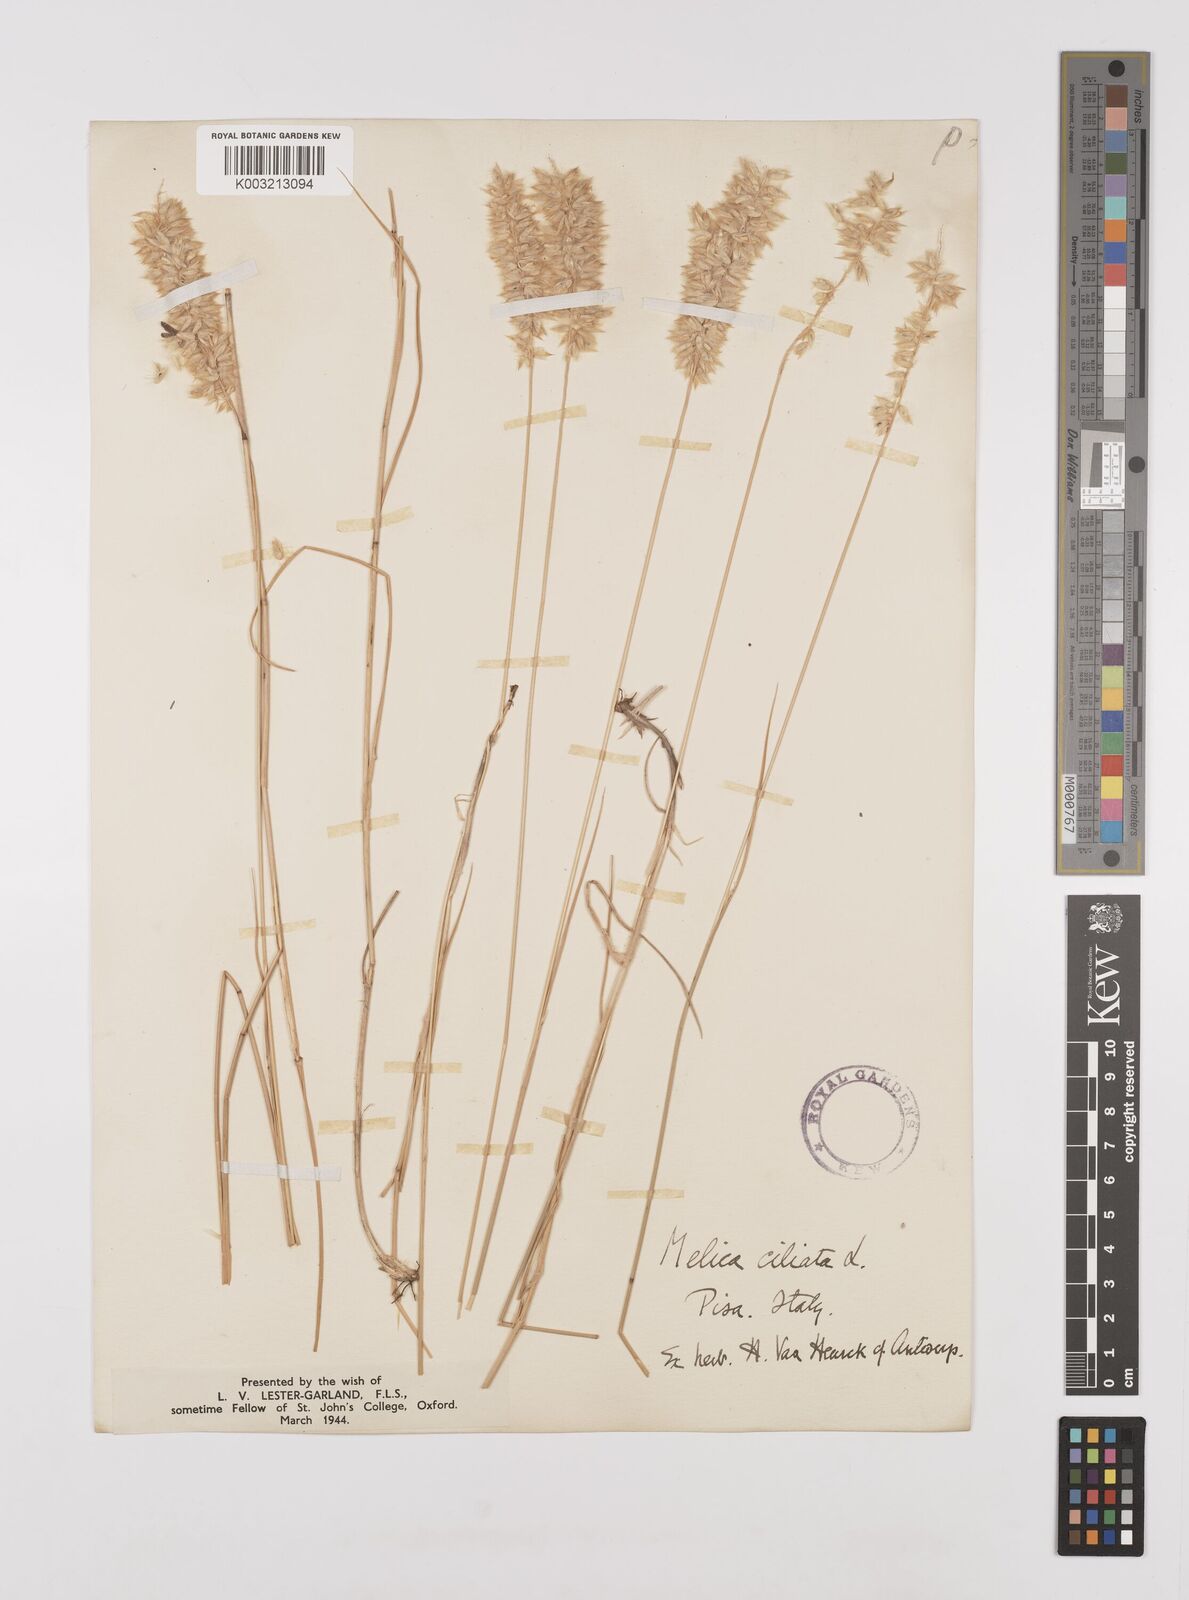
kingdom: Plantae
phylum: Tracheophyta
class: Liliopsida
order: Poales
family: Poaceae
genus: Melica
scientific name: Melica ciliata
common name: Hairy melicgrass
